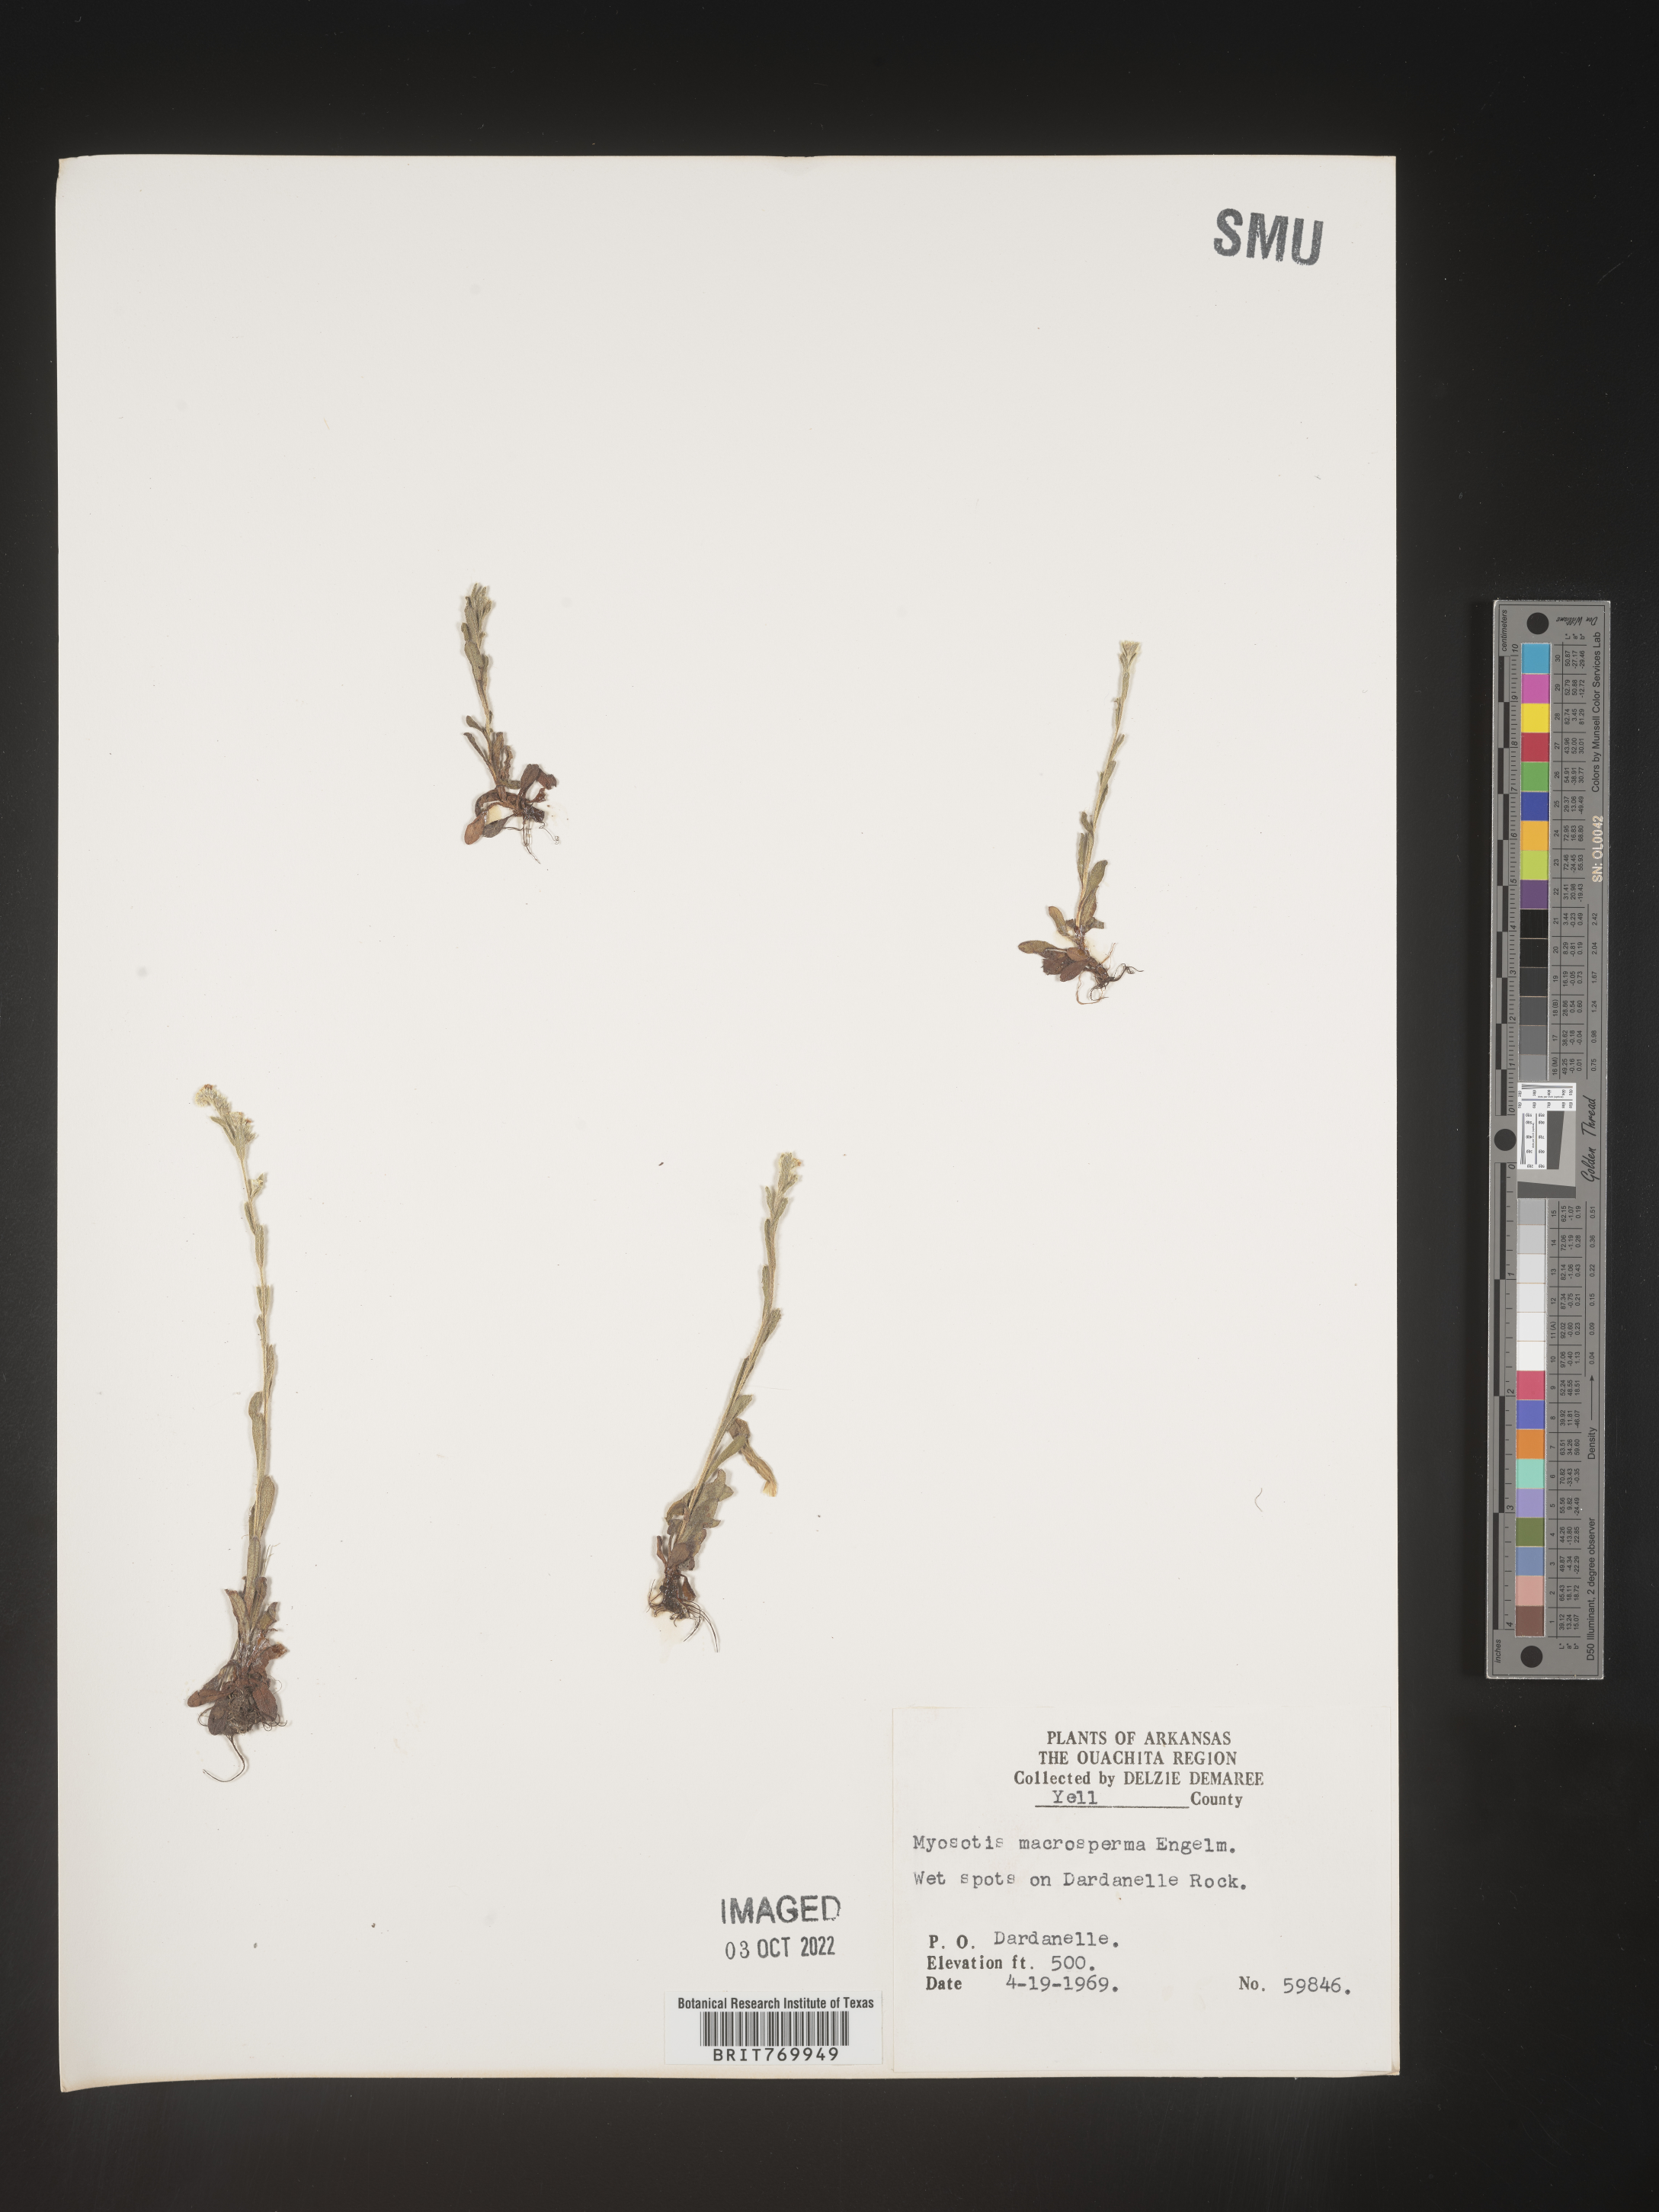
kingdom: Plantae
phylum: Tracheophyta
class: Magnoliopsida
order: Boraginales
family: Boraginaceae
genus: Myosotis
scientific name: Myosotis verna
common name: Early forget-me-not
